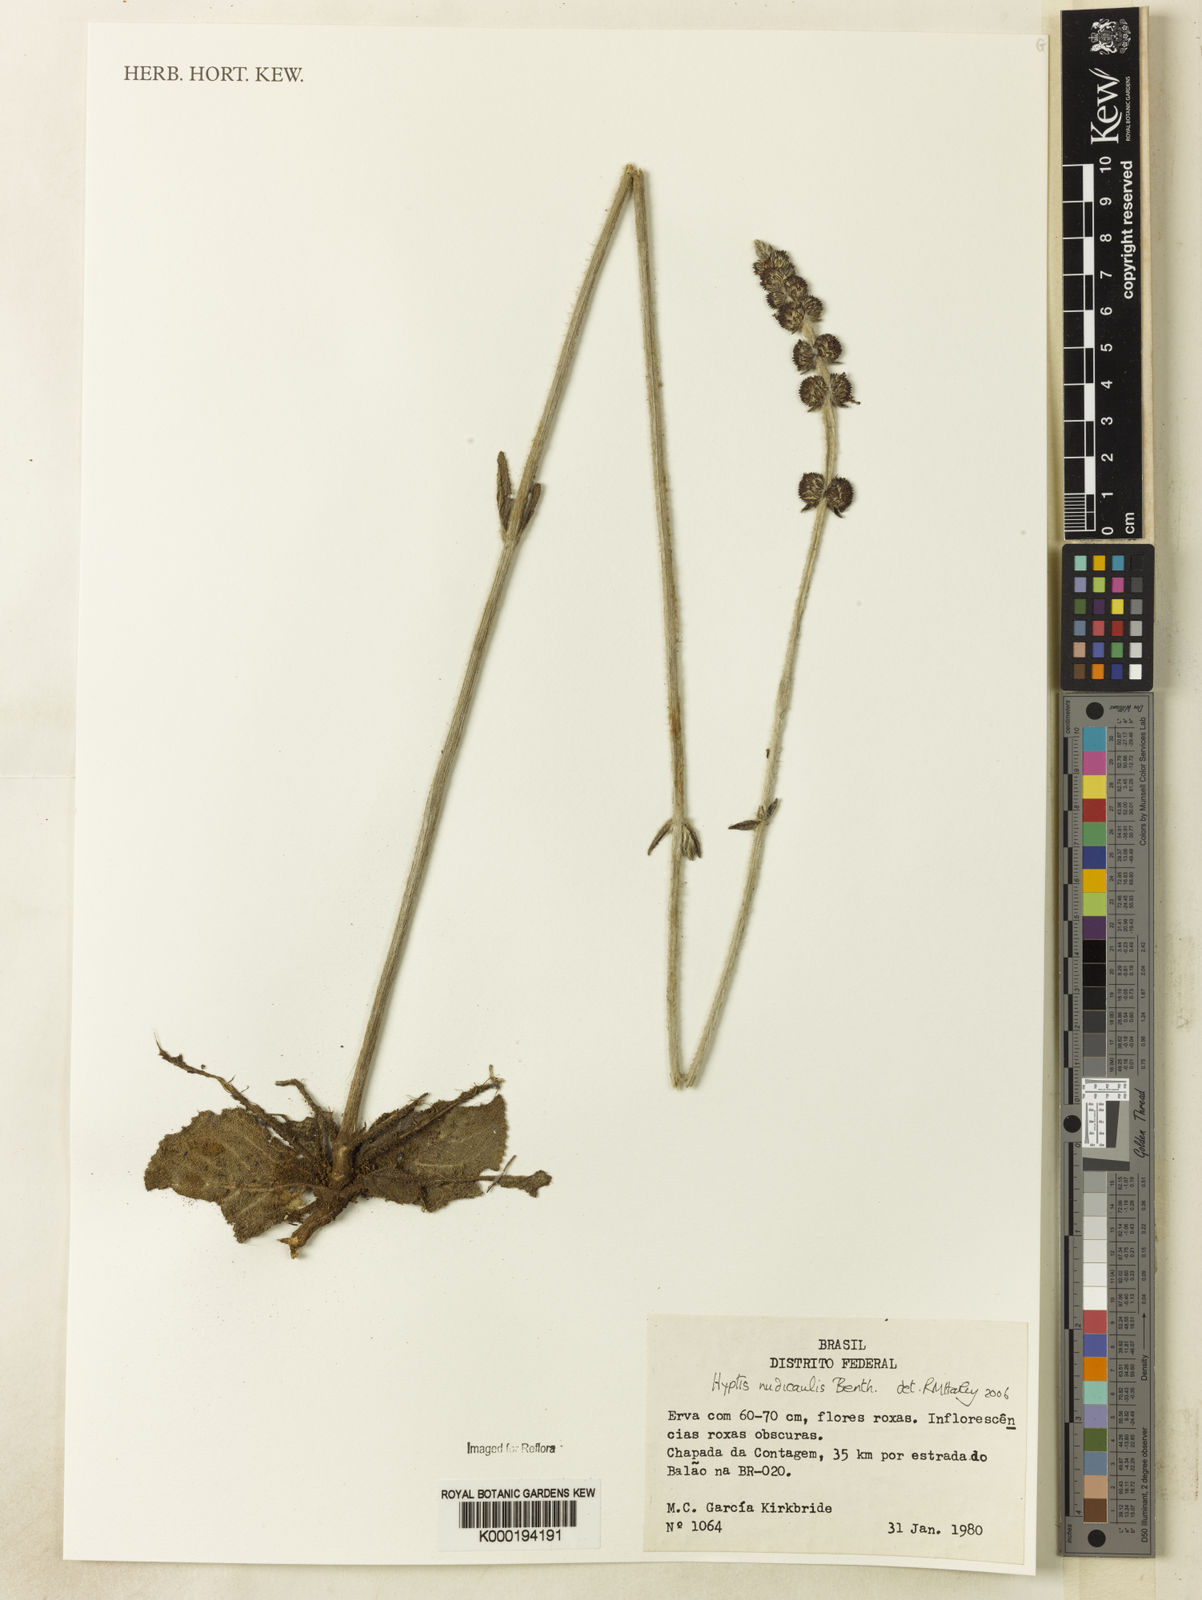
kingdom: Plantae
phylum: Tracheophyta
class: Magnoliopsida
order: Lamiales
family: Lamiaceae
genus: Hyptis
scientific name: Hyptis nudicaulis
